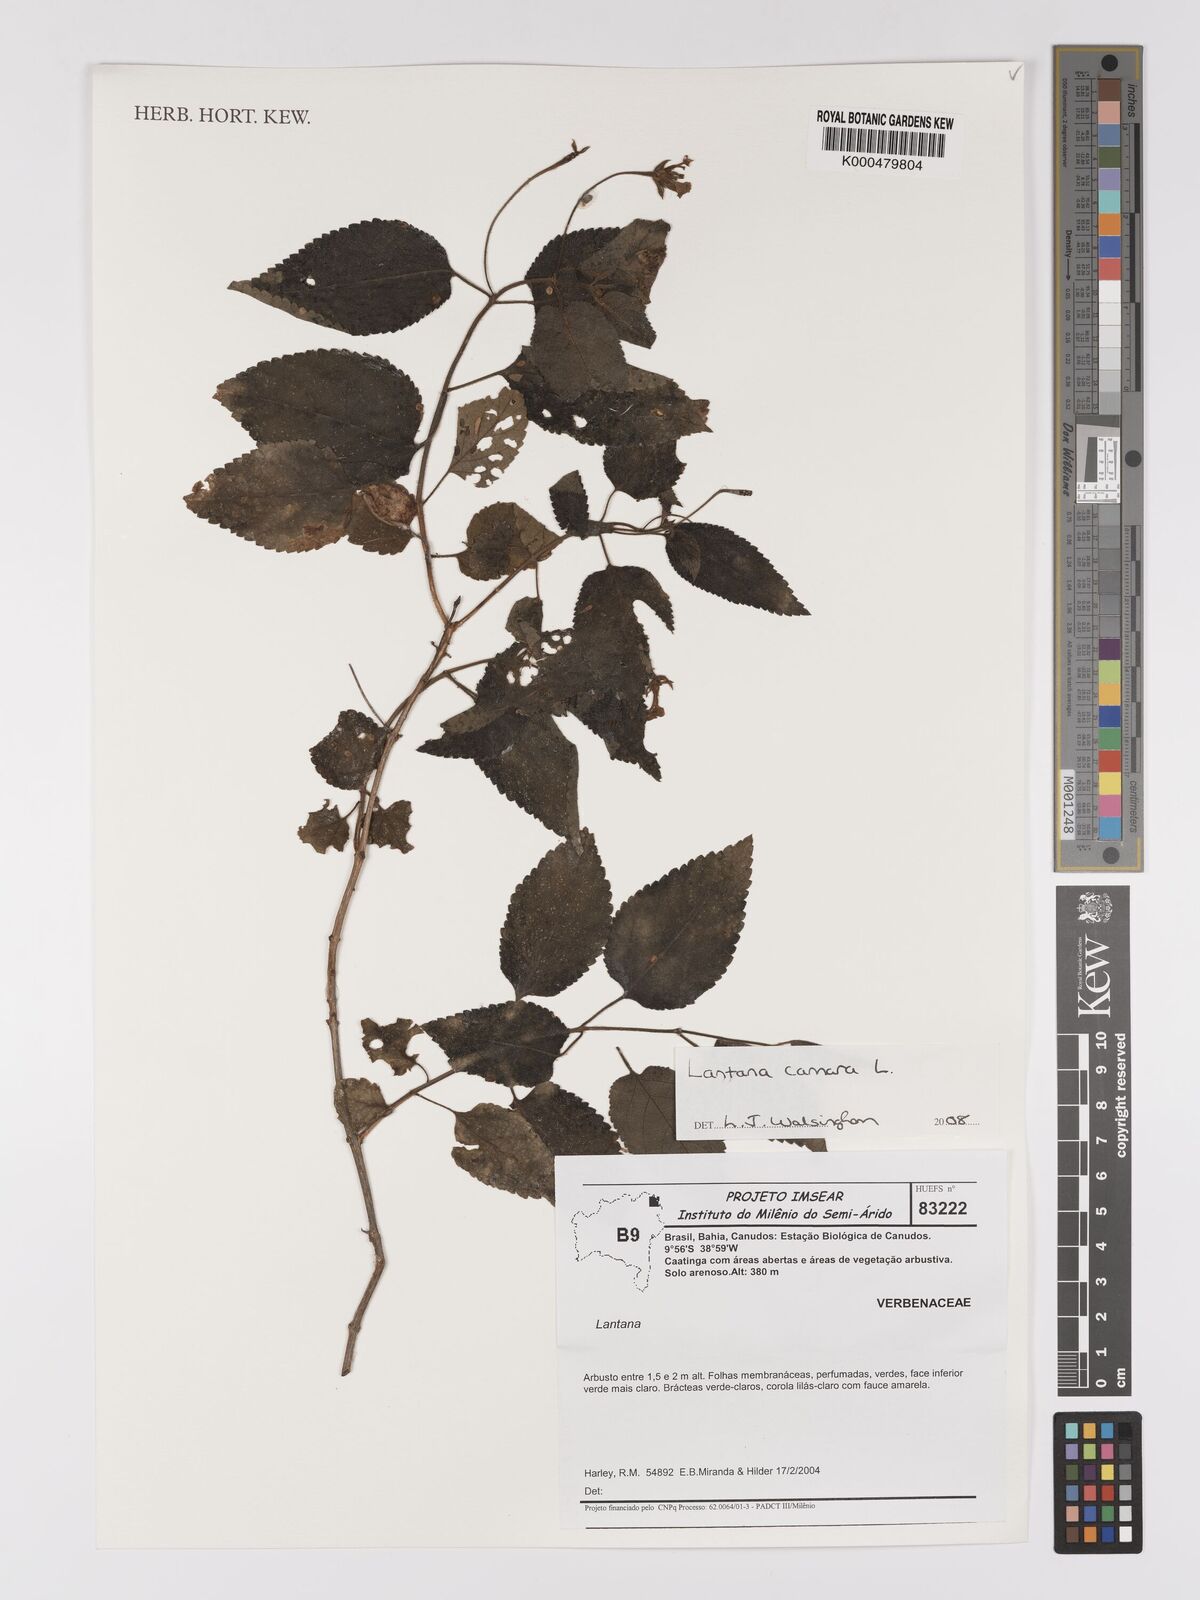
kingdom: Plantae
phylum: Tracheophyta
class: Magnoliopsida
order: Lamiales
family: Verbenaceae
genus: Lantana
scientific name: Lantana camara
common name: Lantana
